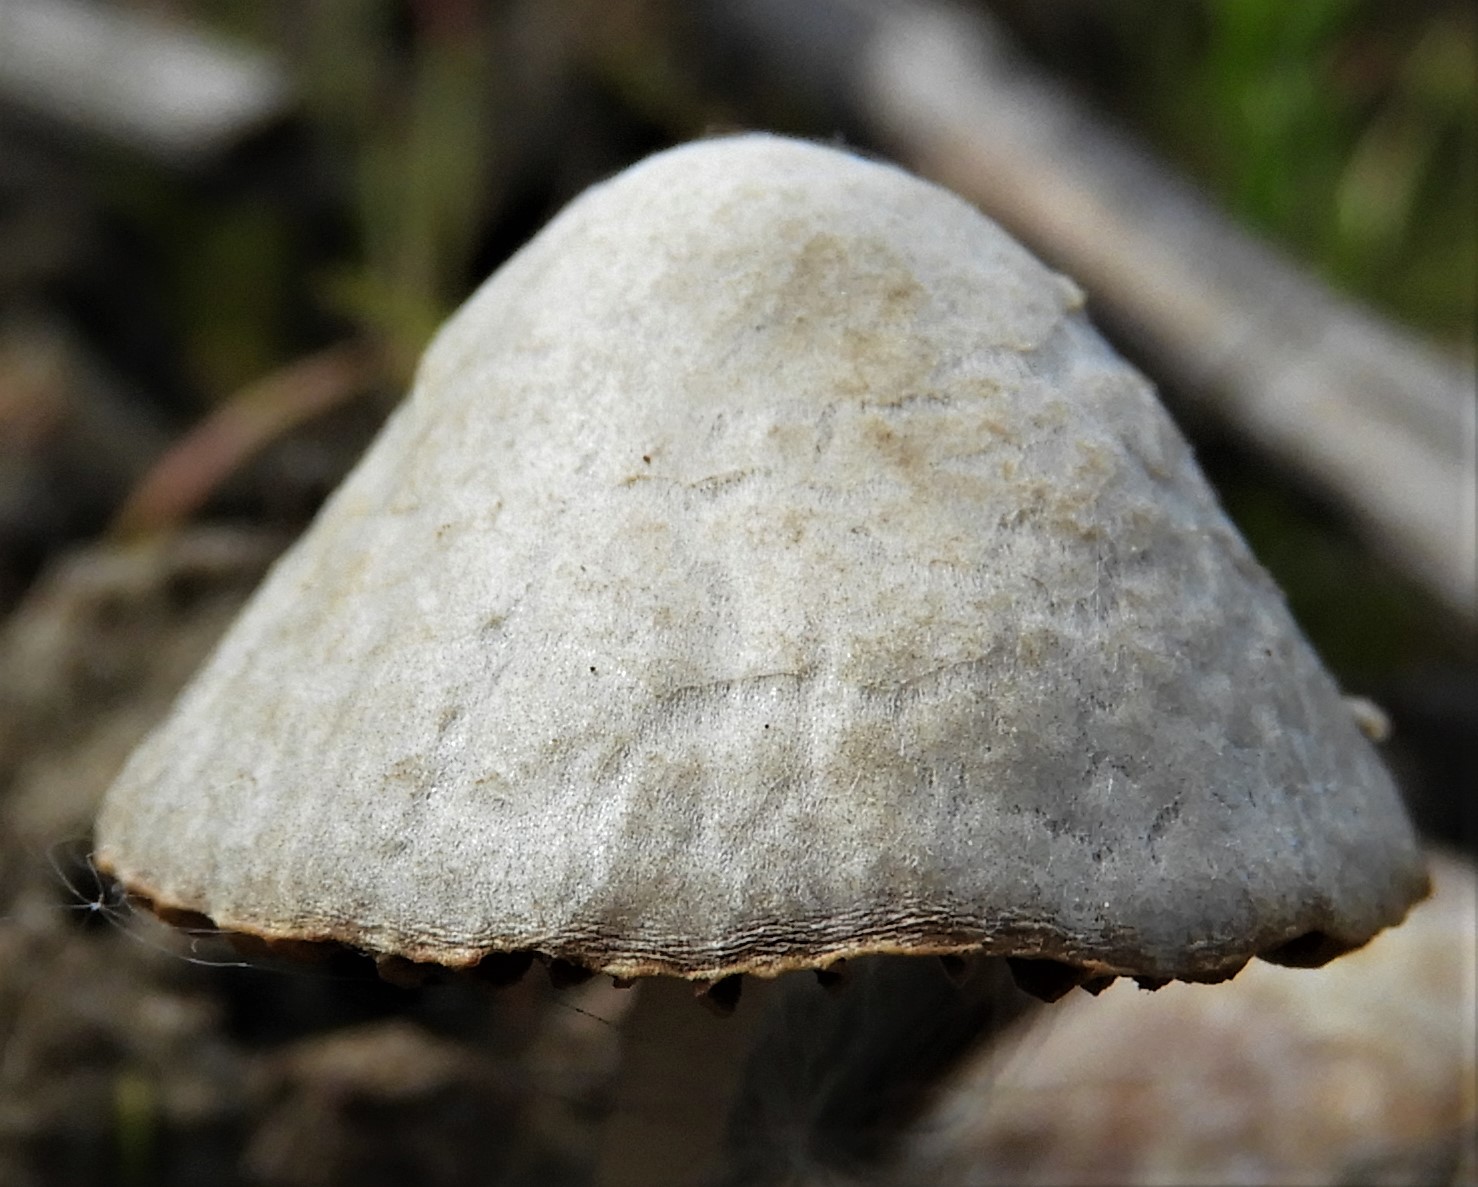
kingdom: Fungi
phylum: Basidiomycota
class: Agaricomycetes
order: Agaricales
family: Psathyrellaceae
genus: Psathyrella
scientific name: Psathyrella
